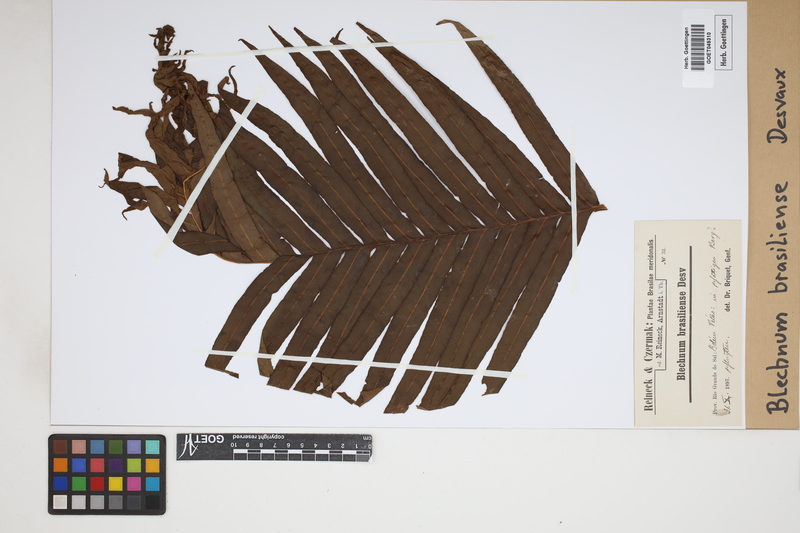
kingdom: Plantae
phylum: Tracheophyta
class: Polypodiopsida
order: Polypodiales
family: Blechnaceae
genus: Neoblechnum
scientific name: Neoblechnum brasiliense
